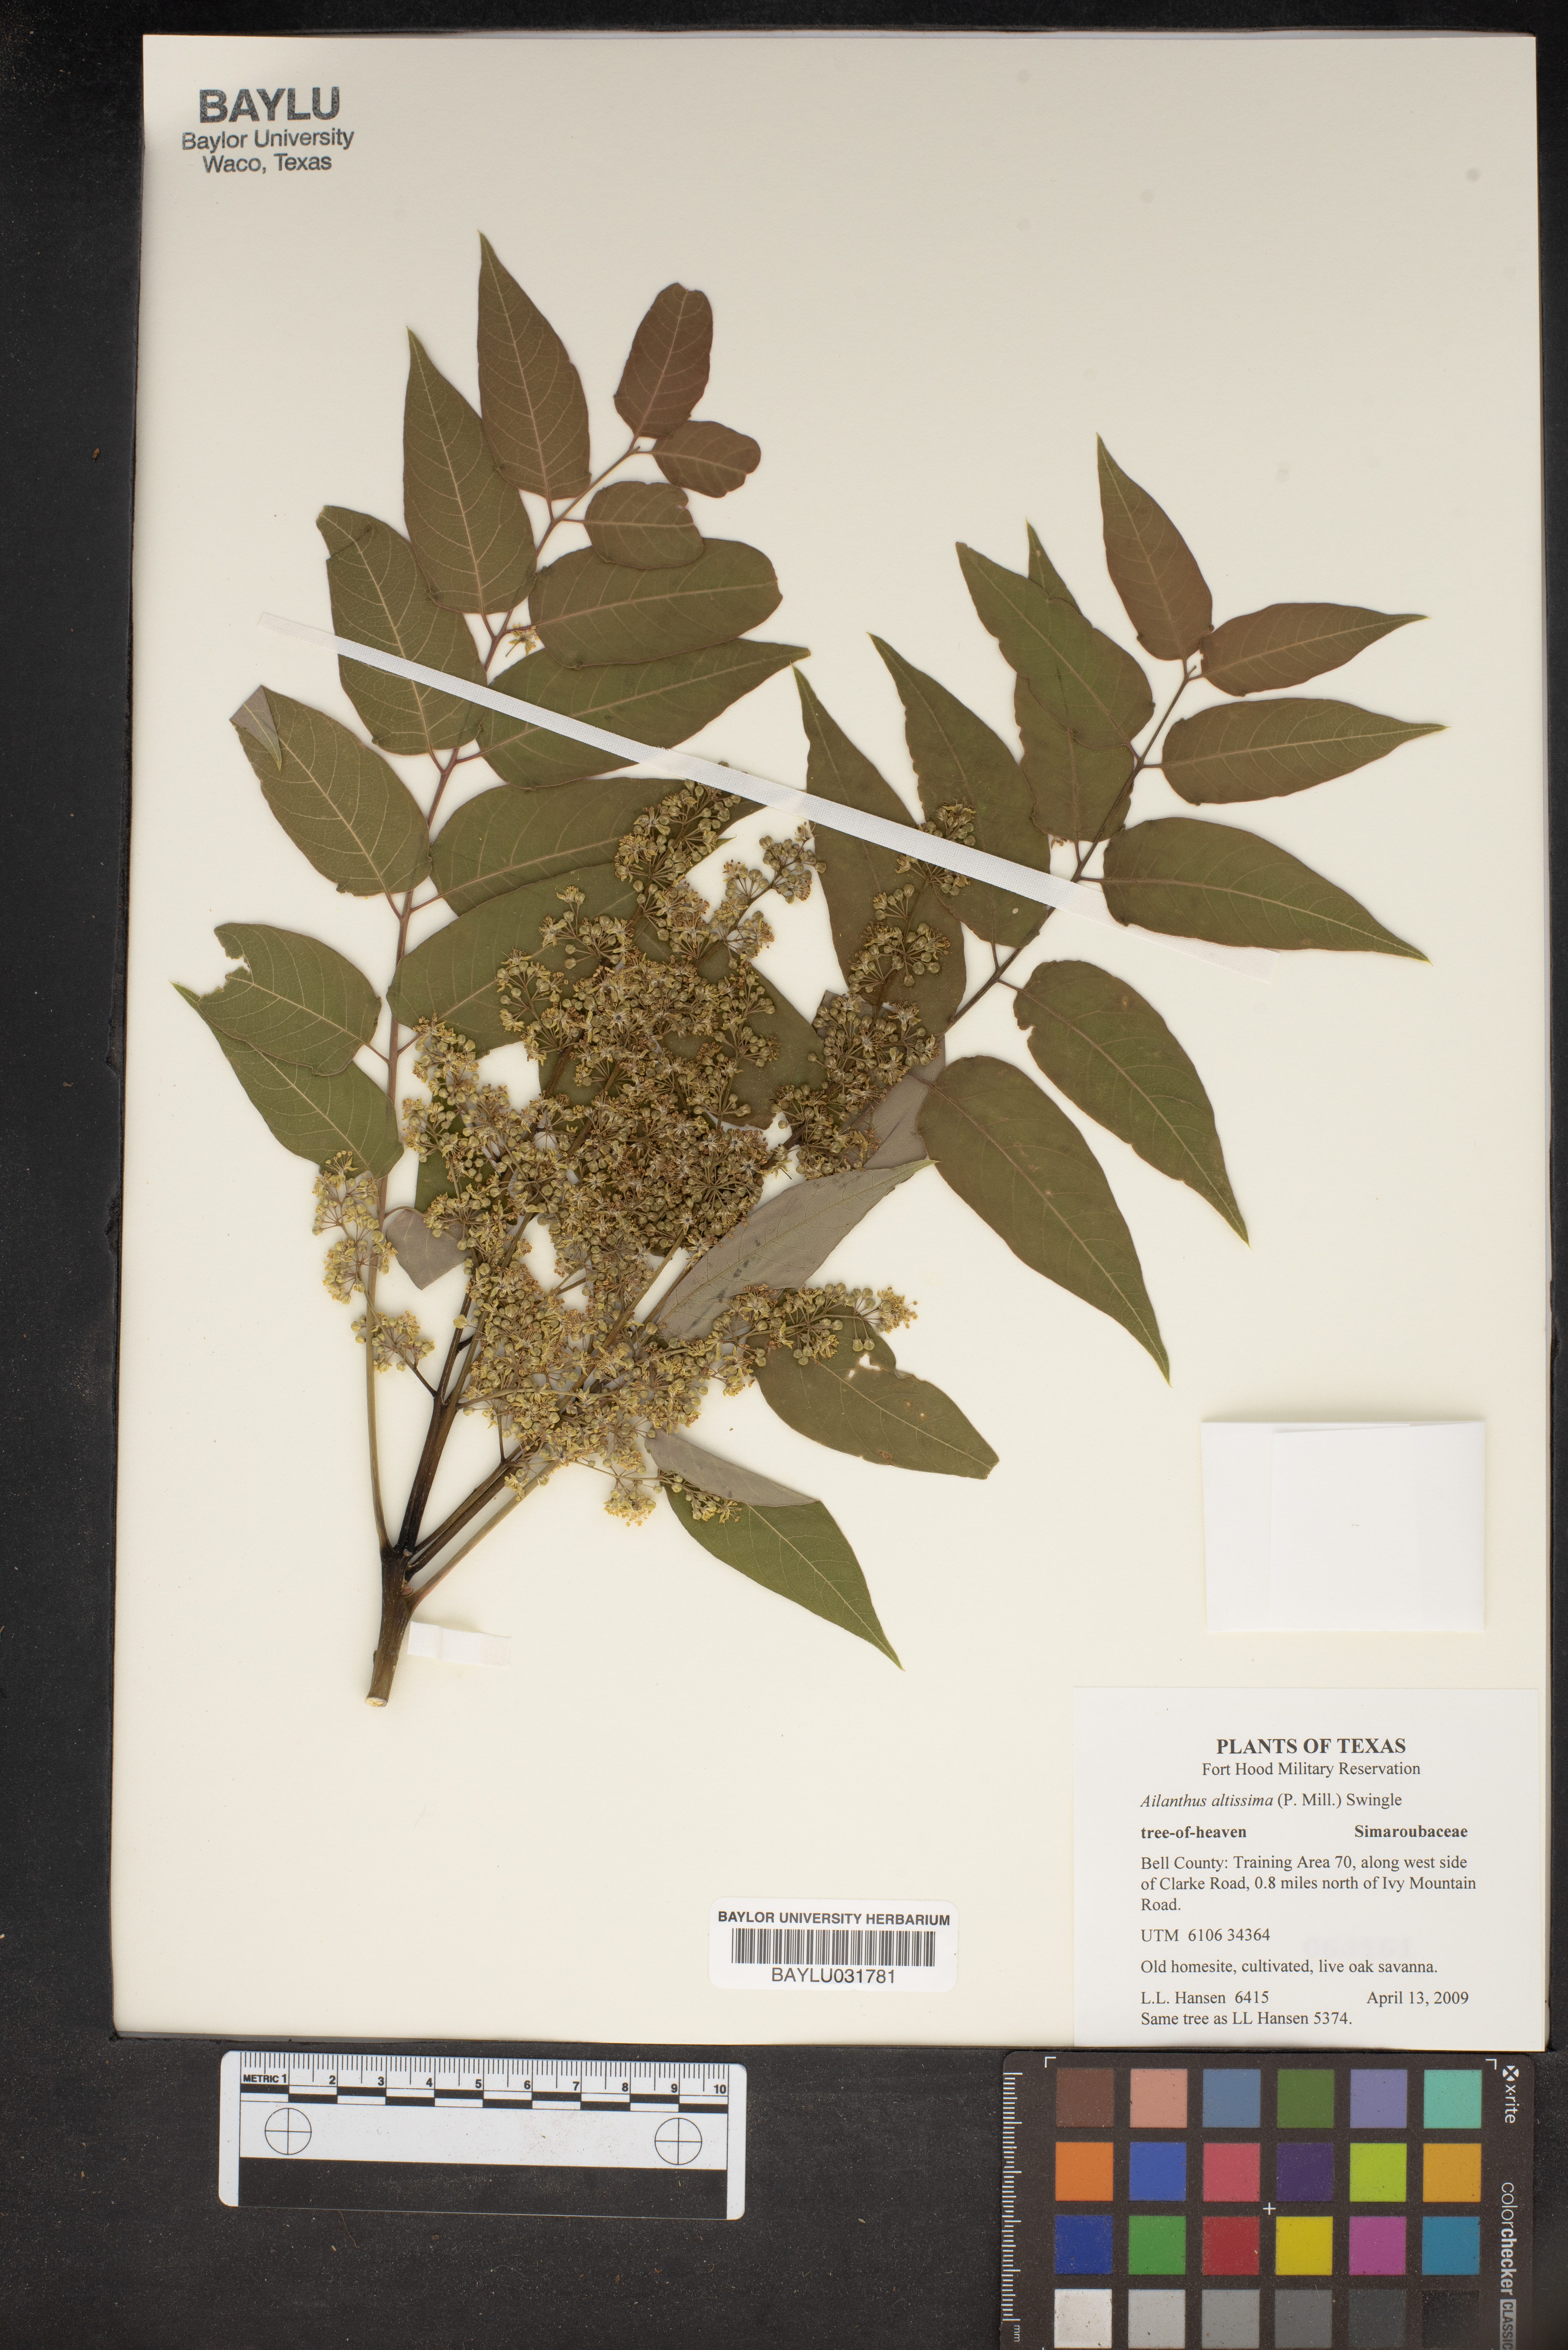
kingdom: Plantae
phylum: Tracheophyta
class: Magnoliopsida
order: Sapindales
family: Simaroubaceae
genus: Ailanthus
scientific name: Ailanthus altissima
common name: Tree-of-heaven
